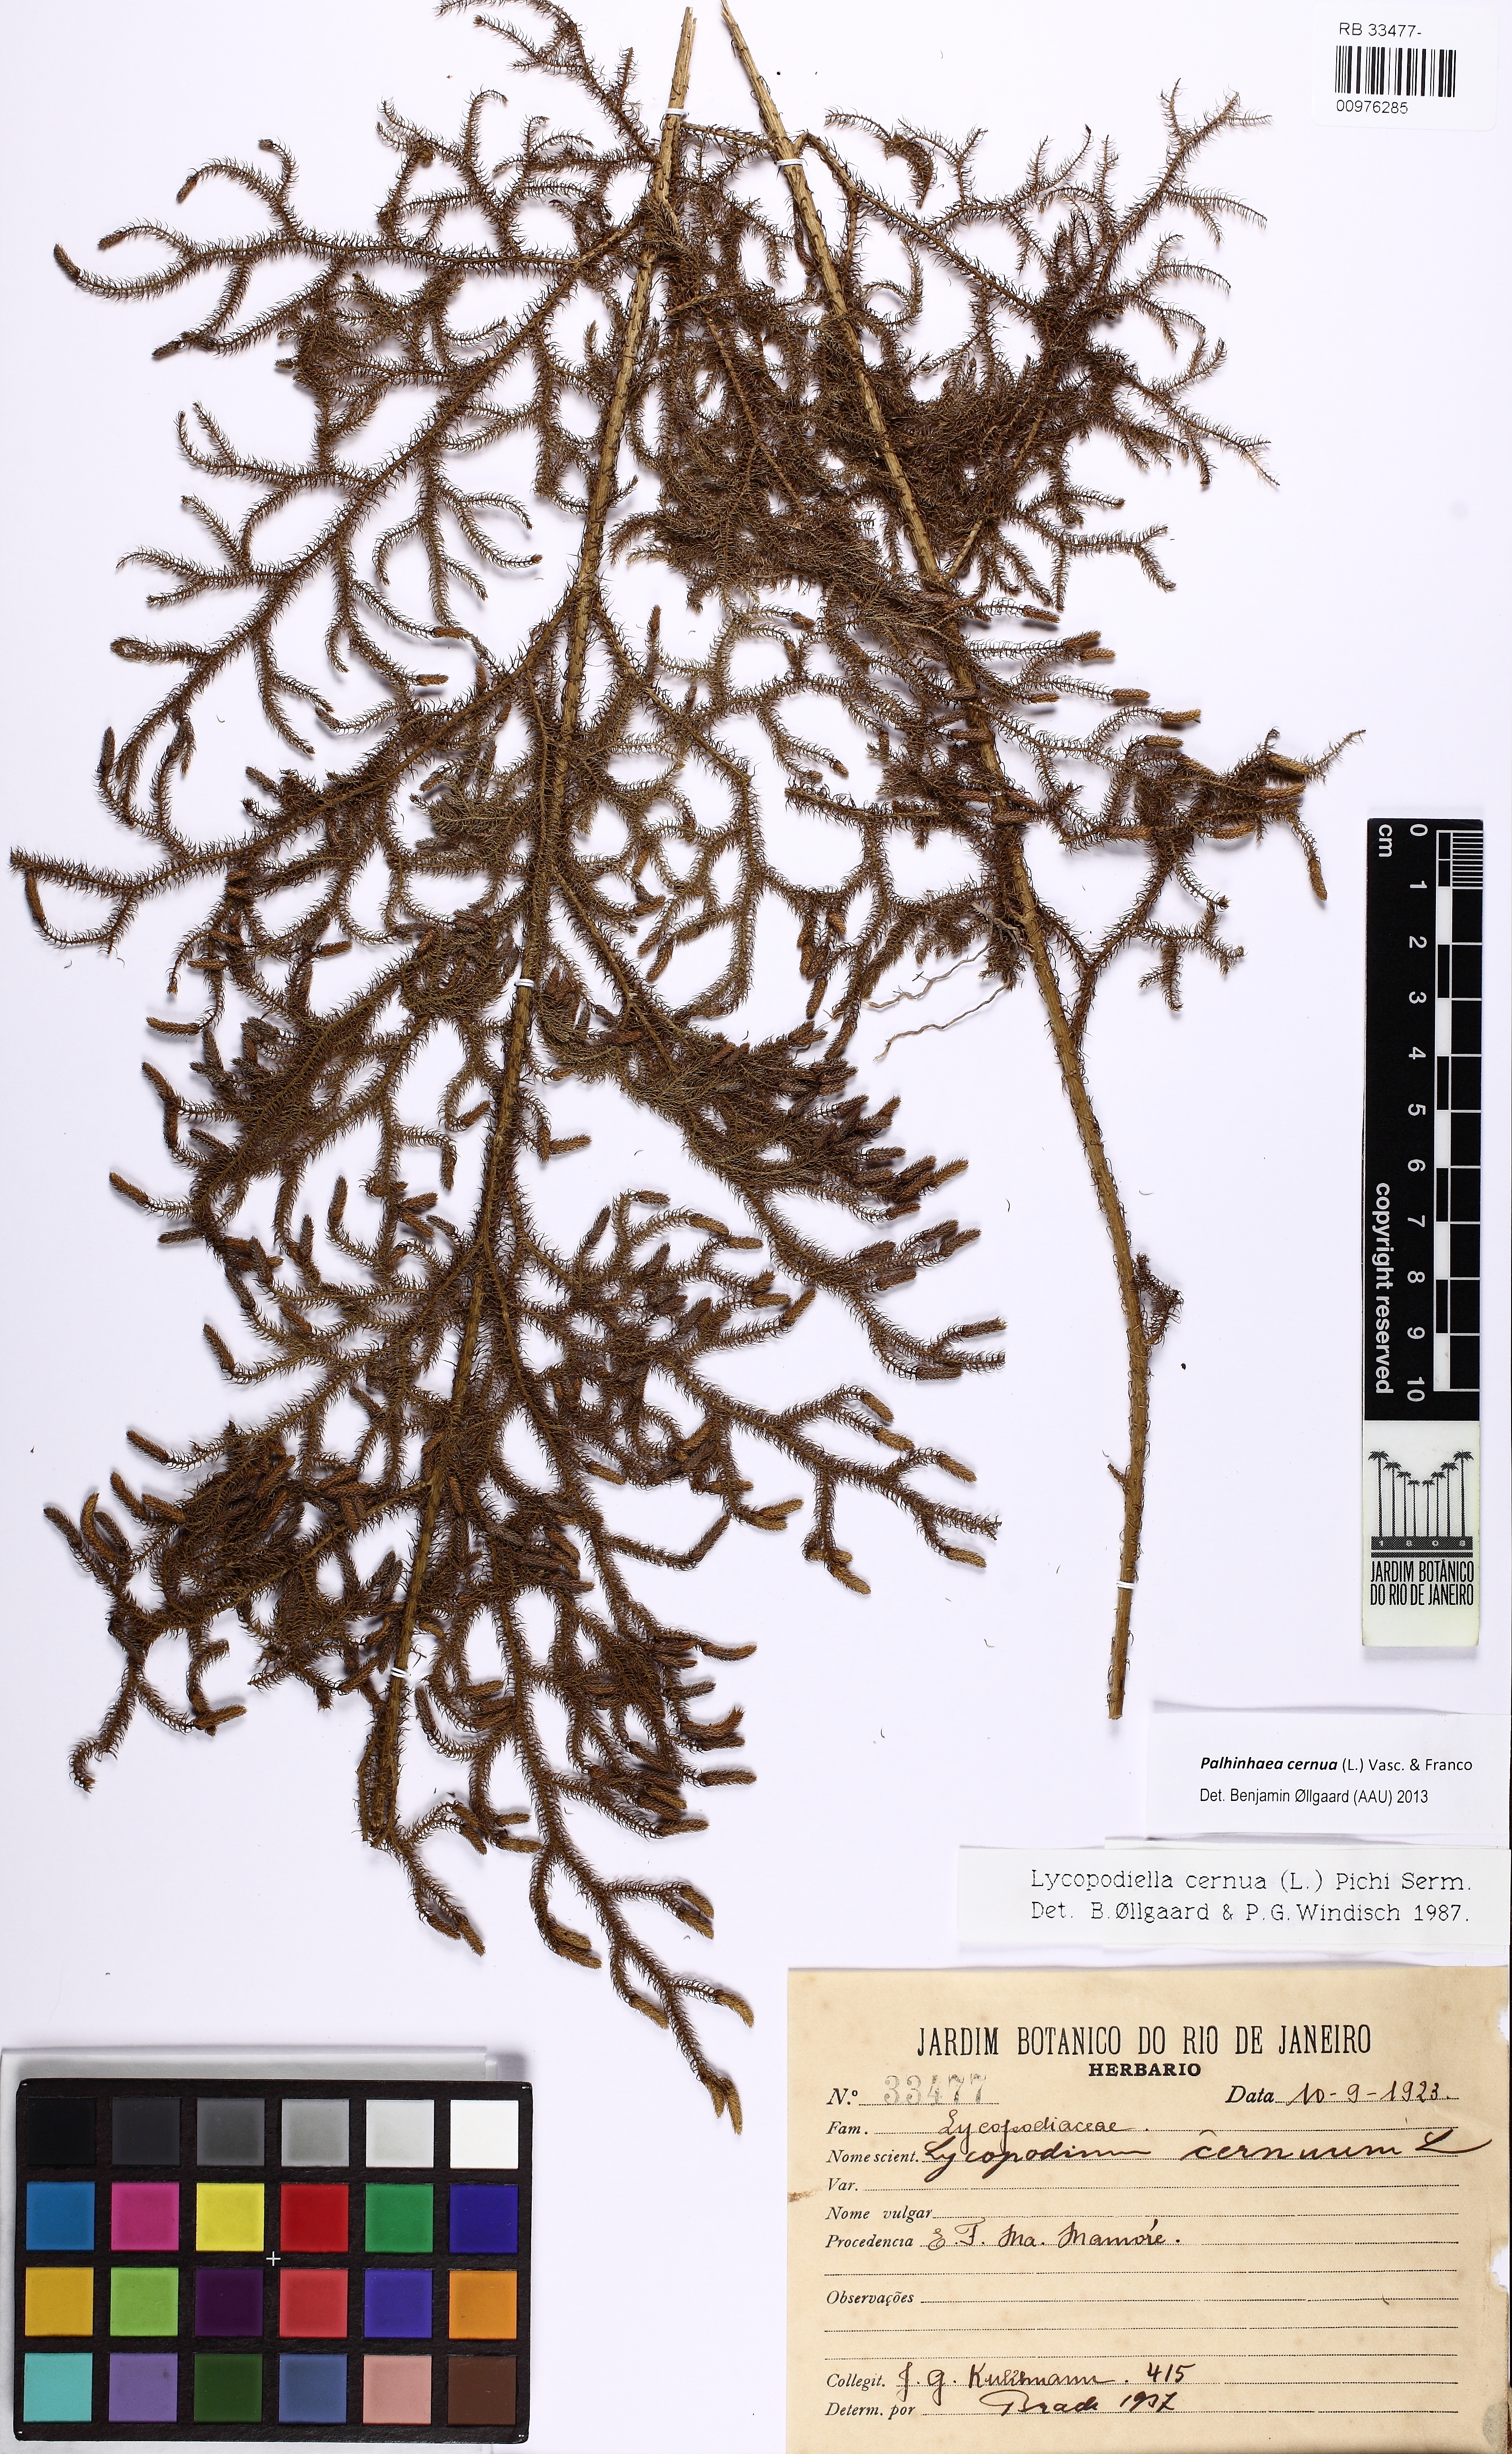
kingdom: Plantae
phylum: Tracheophyta
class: Lycopodiopsida
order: Lycopodiales
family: Lycopodiaceae
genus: Palhinhaea
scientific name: Palhinhaea cernua
